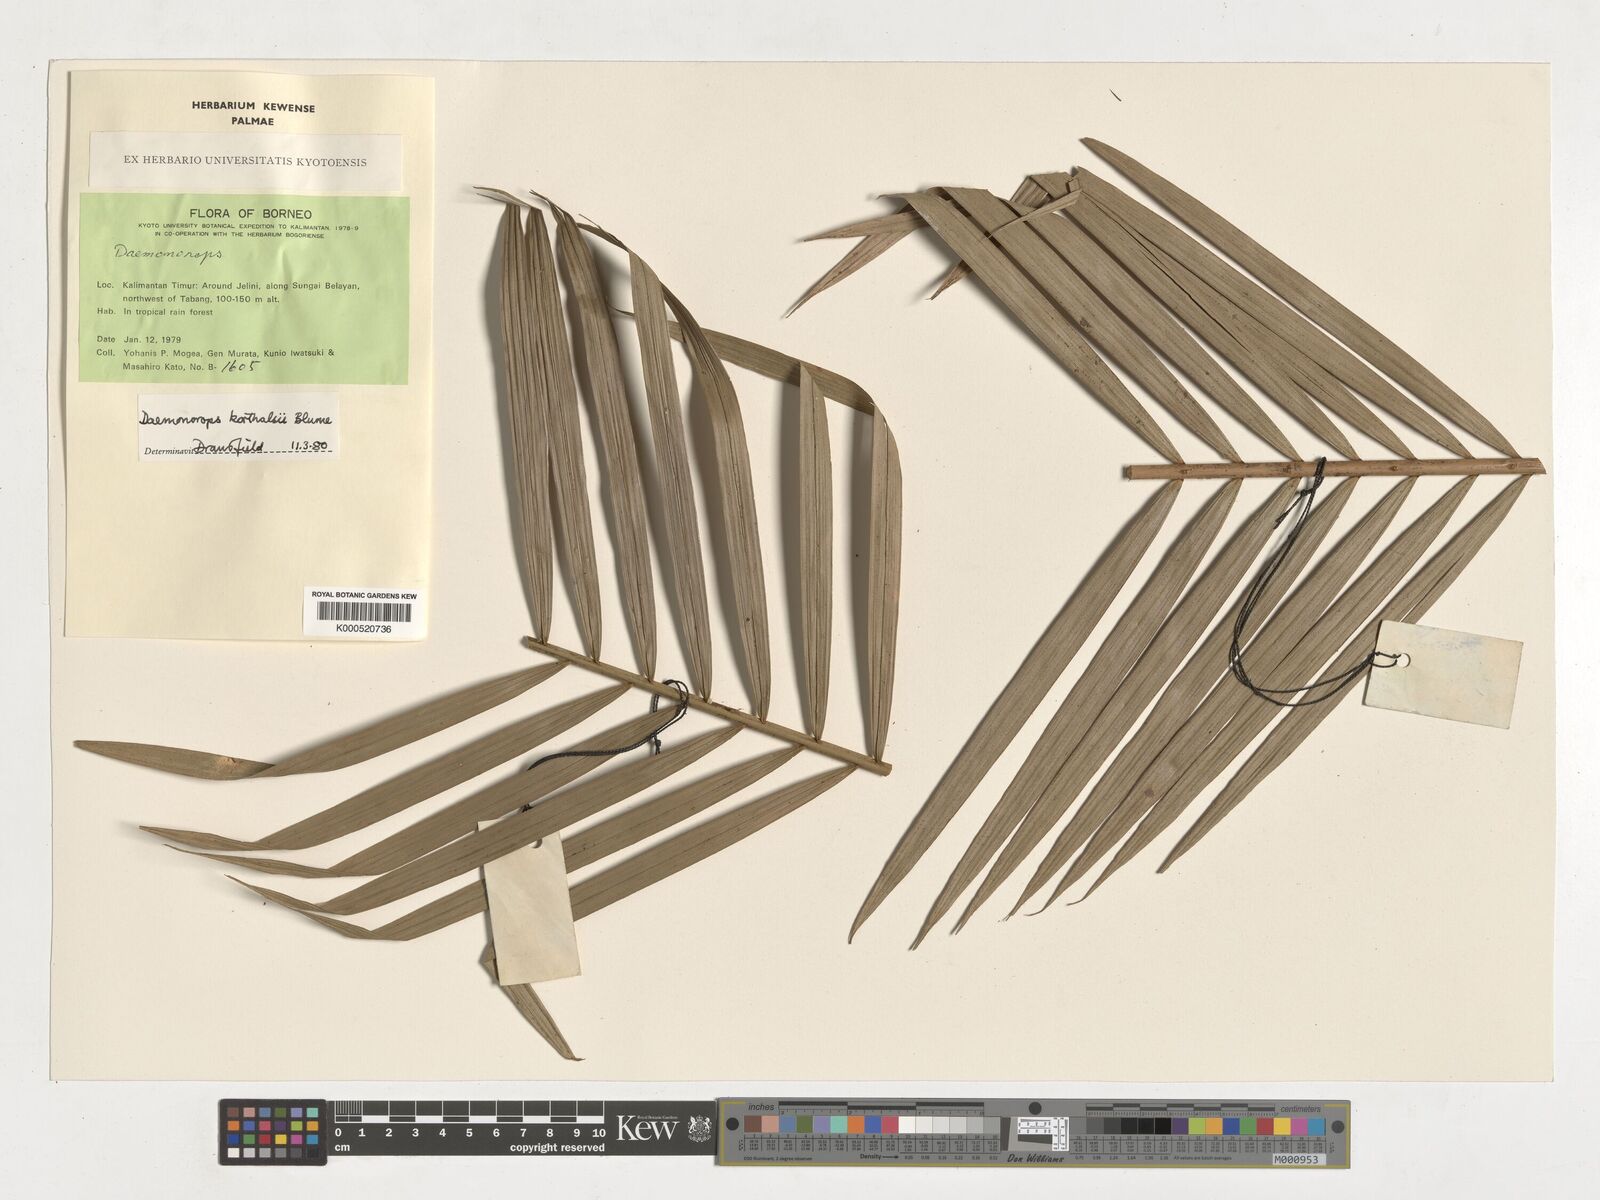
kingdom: Plantae
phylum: Tracheophyta
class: Liliopsida
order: Arecales
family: Arecaceae
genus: Calamus
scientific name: Calamus hirsutus
